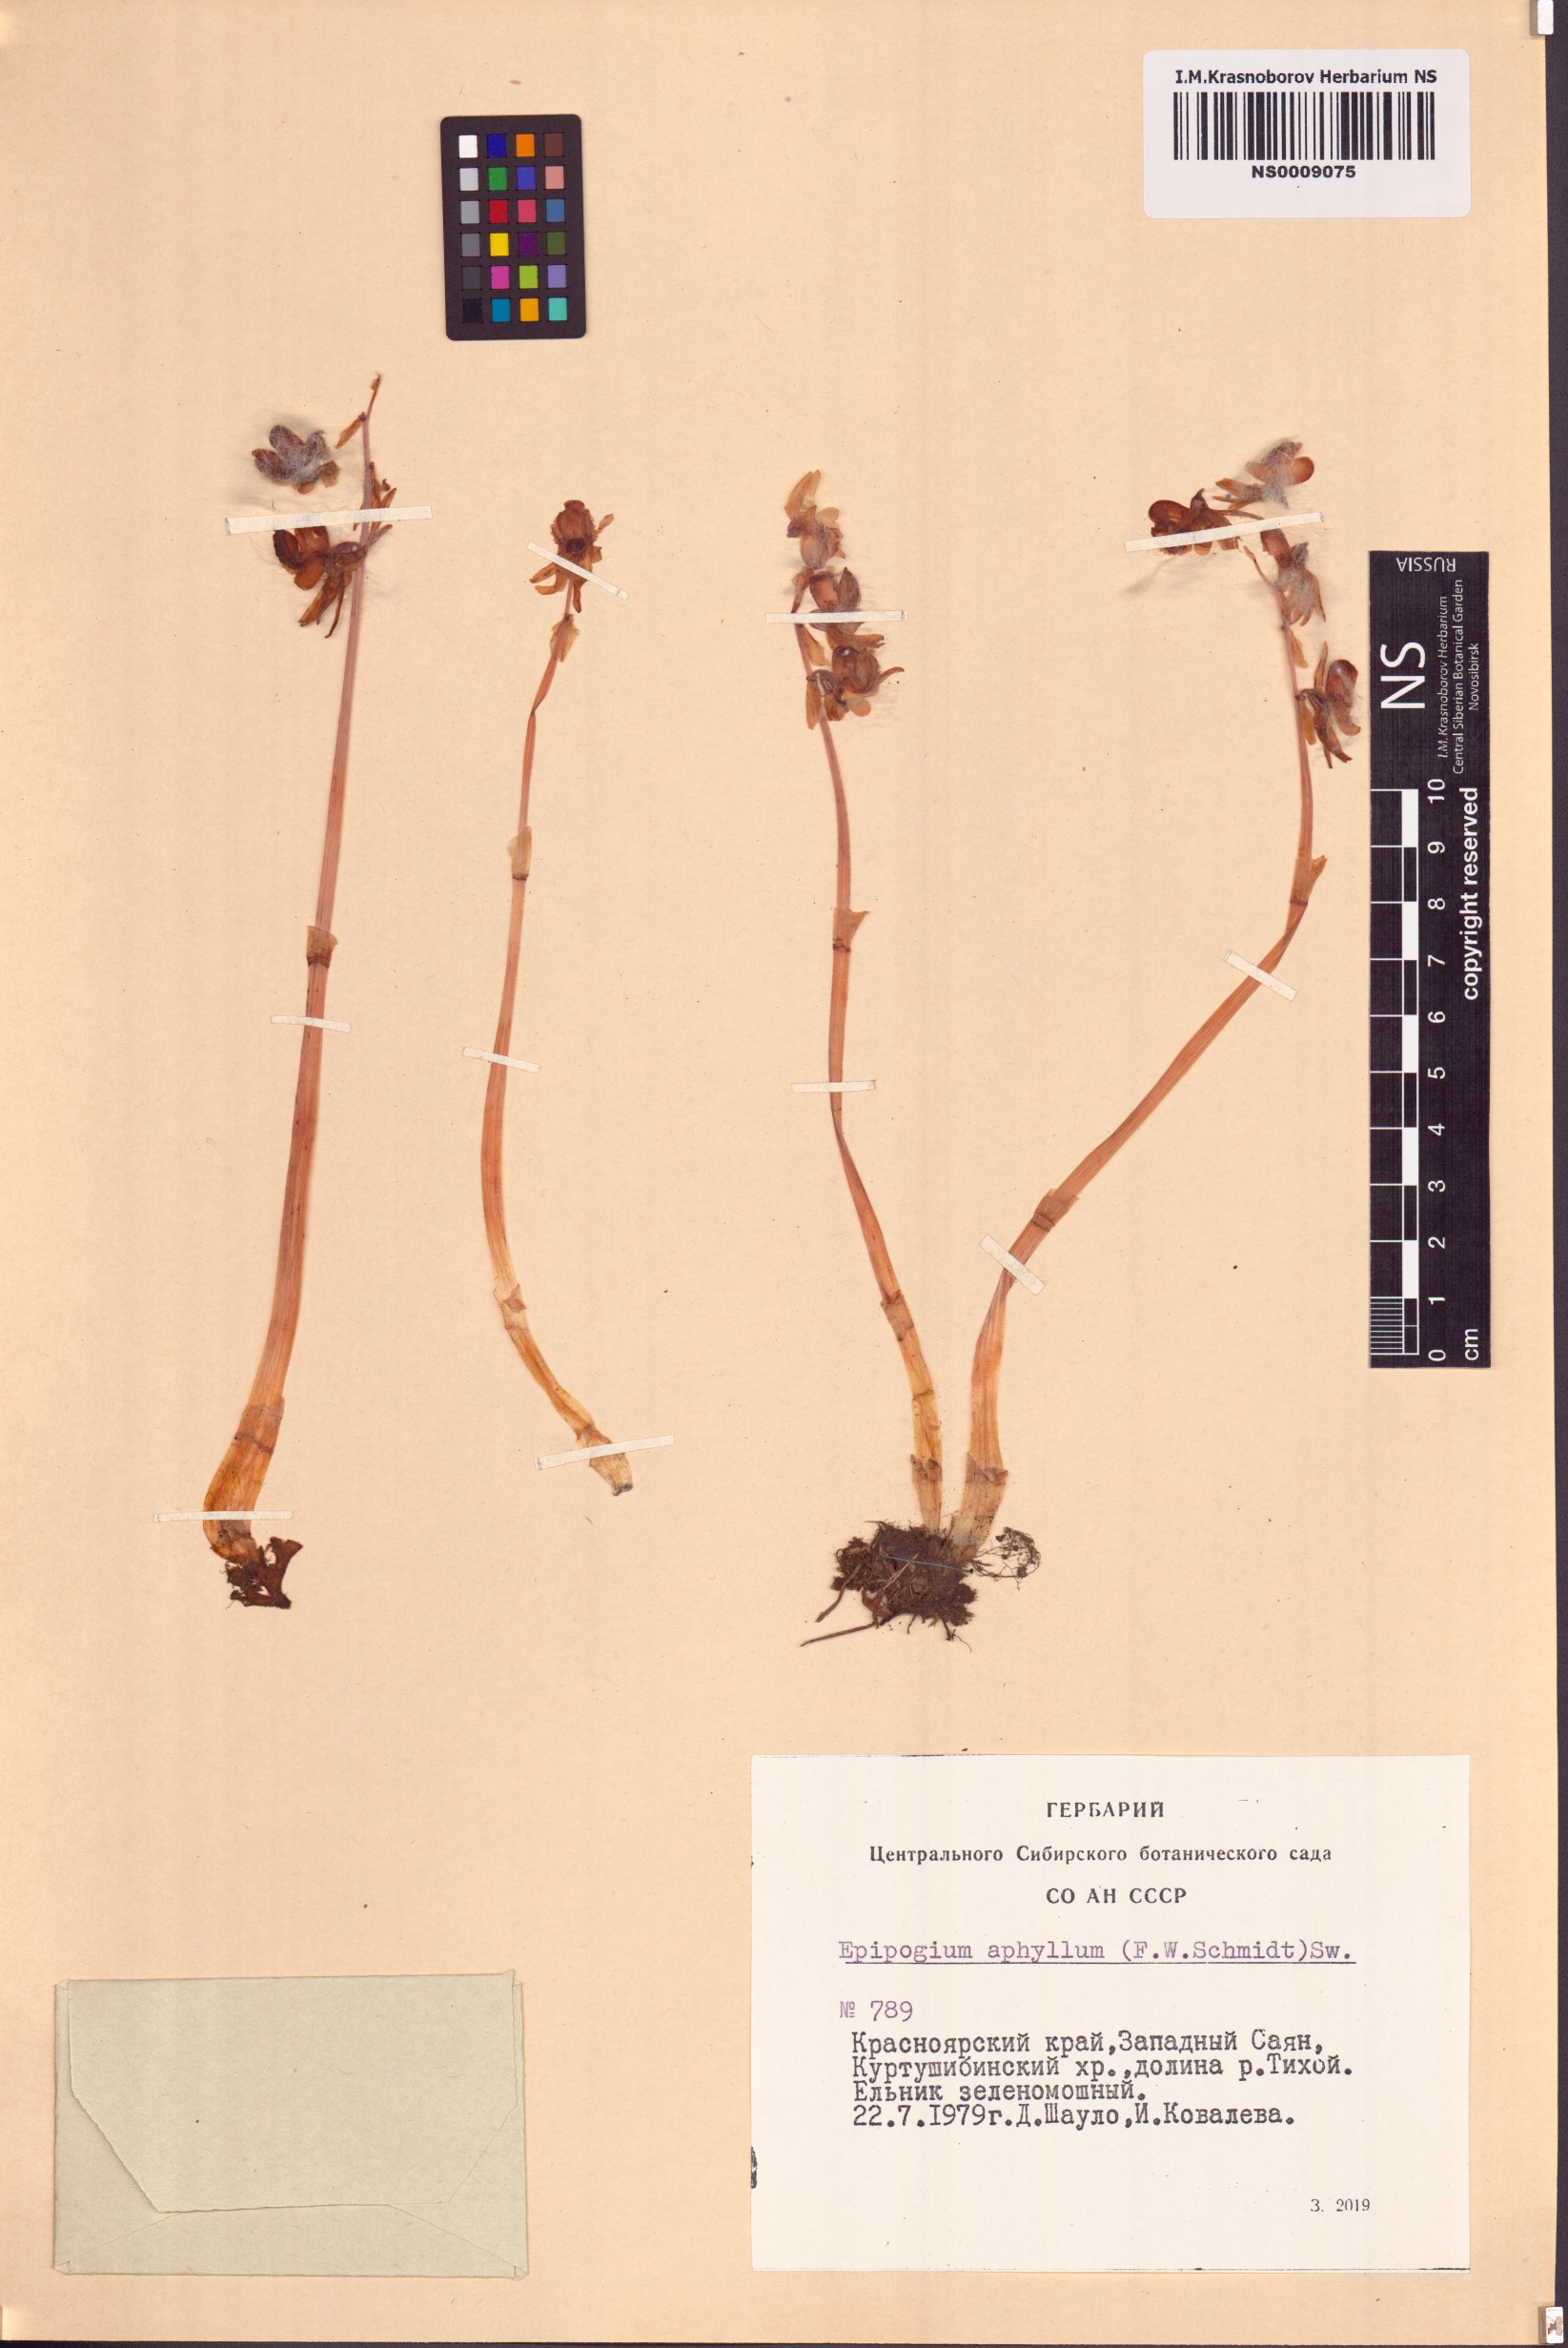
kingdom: Plantae
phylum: Tracheophyta
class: Liliopsida
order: Asparagales
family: Orchidaceae
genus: Epipogium
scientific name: Epipogium aphyllum
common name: Ghost orchid
